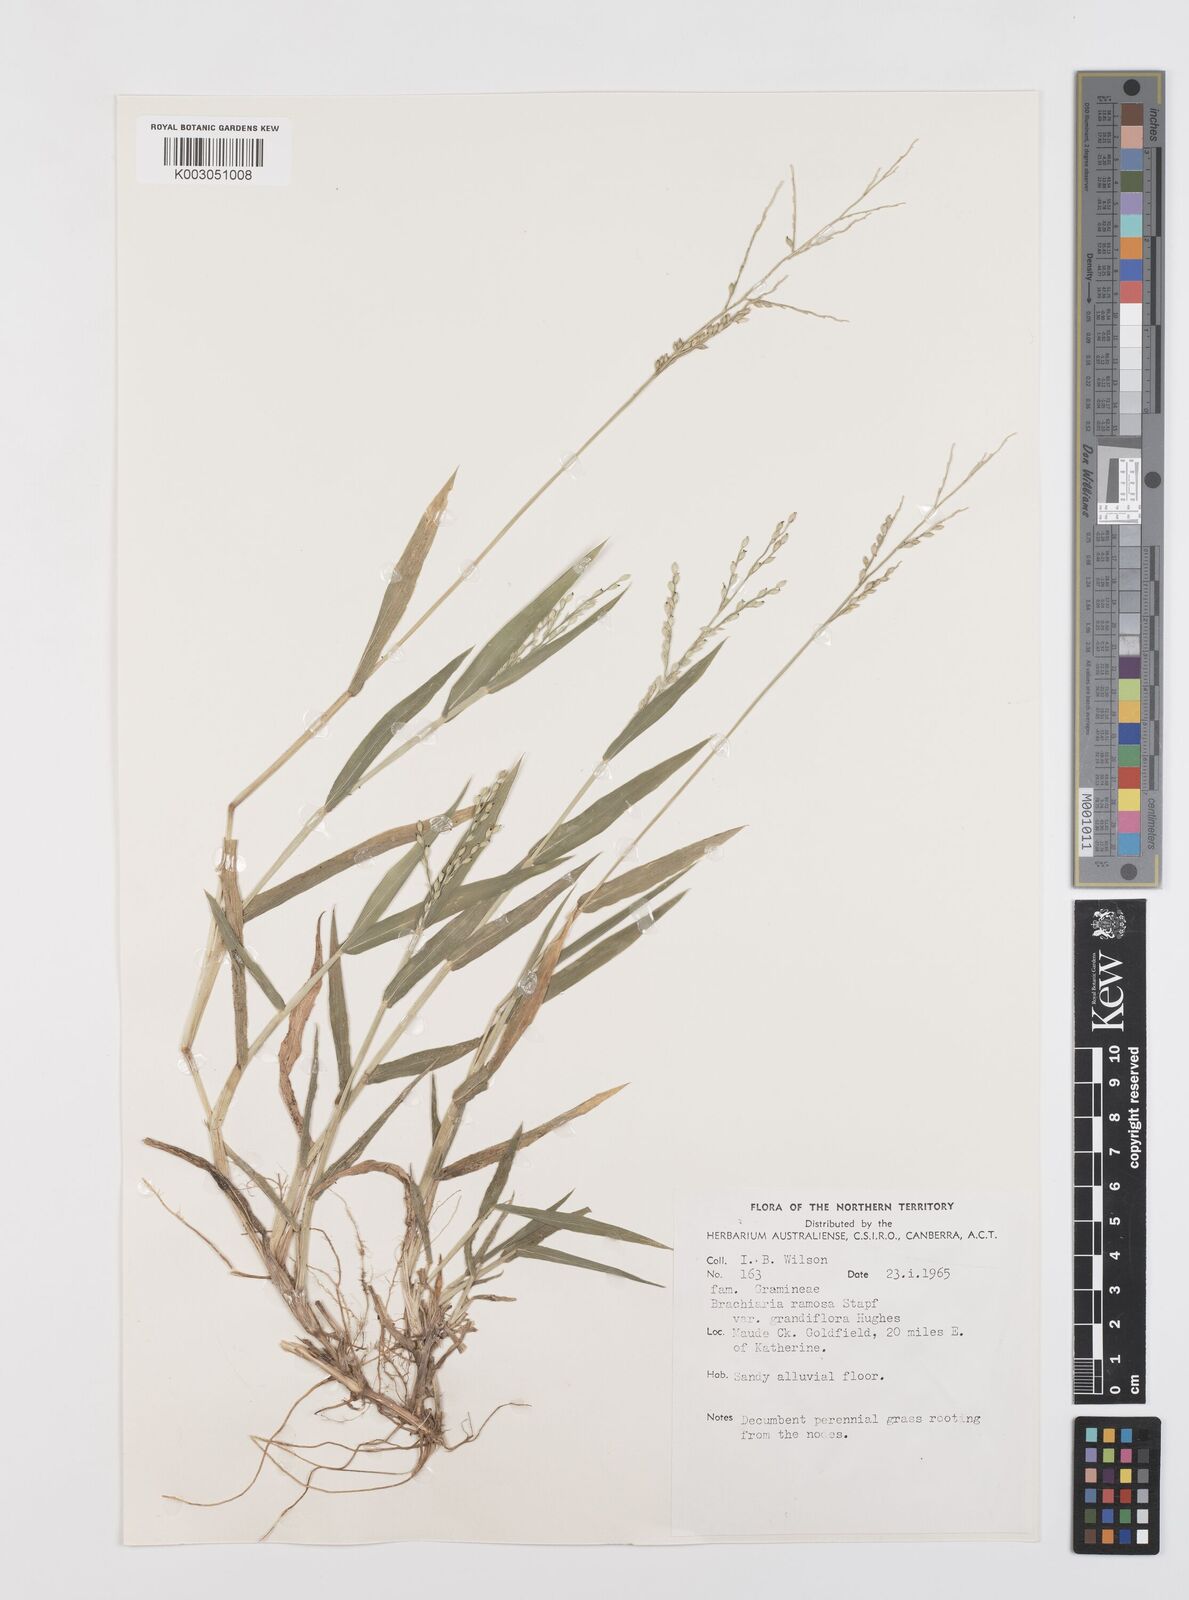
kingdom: Plantae
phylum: Tracheophyta
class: Liliopsida
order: Poales
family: Poaceae
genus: Urochloa
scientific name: Urochloa pubigera
